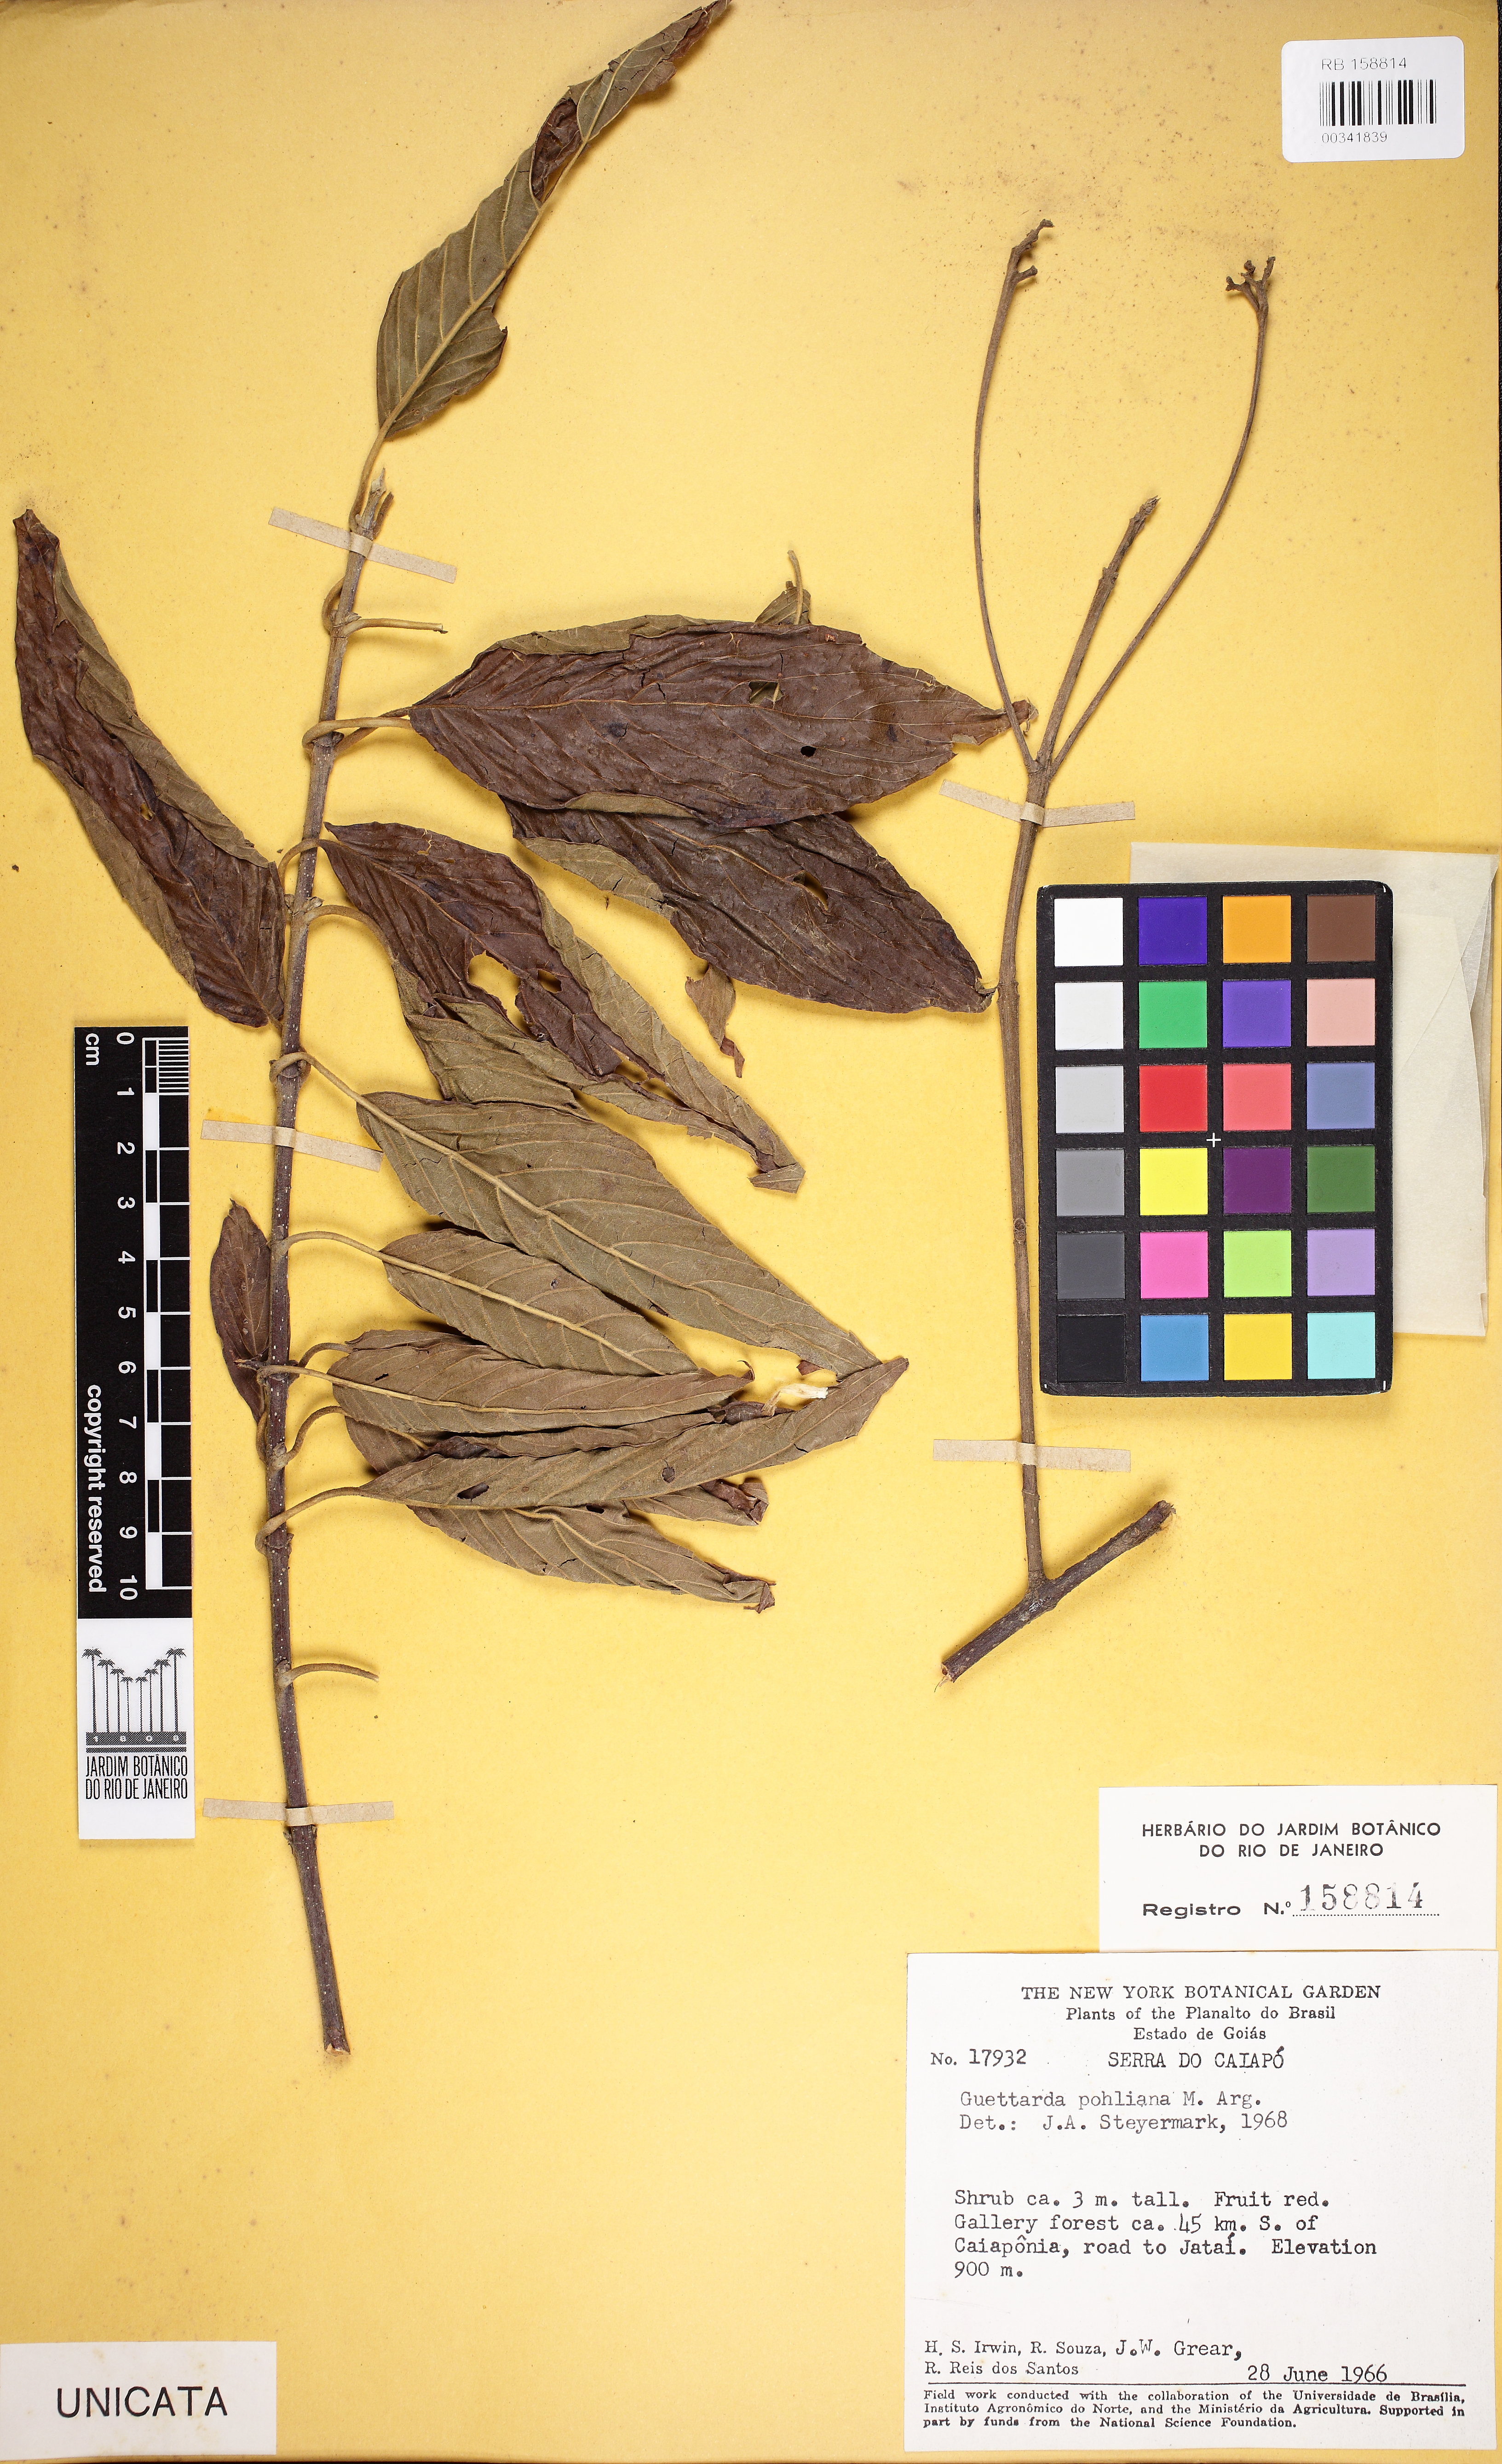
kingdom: Plantae
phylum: Tracheophyta
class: Magnoliopsida
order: Gentianales
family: Rubiaceae
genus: Guettarda
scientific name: Guettarda pohliana
